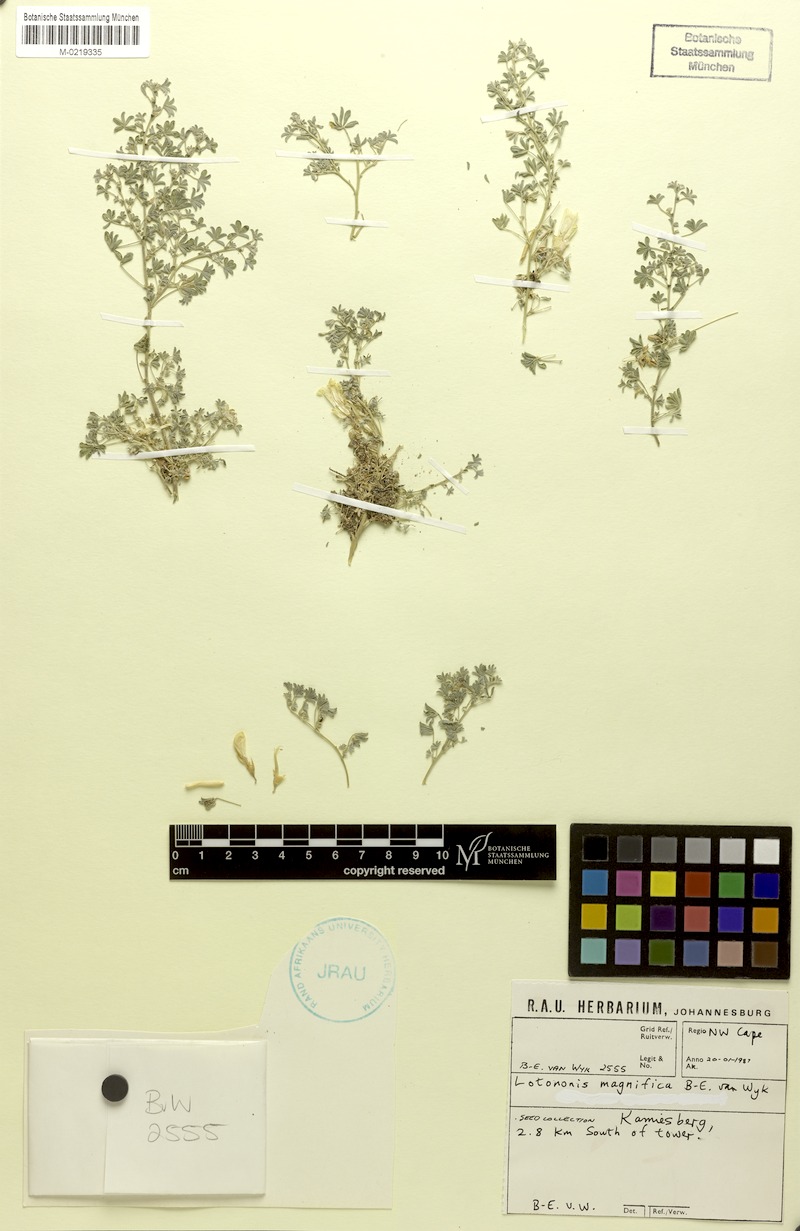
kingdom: Plantae
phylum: Tracheophyta
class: Magnoliopsida
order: Fabales
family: Fabaceae
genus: Leobordea
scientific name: Leobordea magnifica
